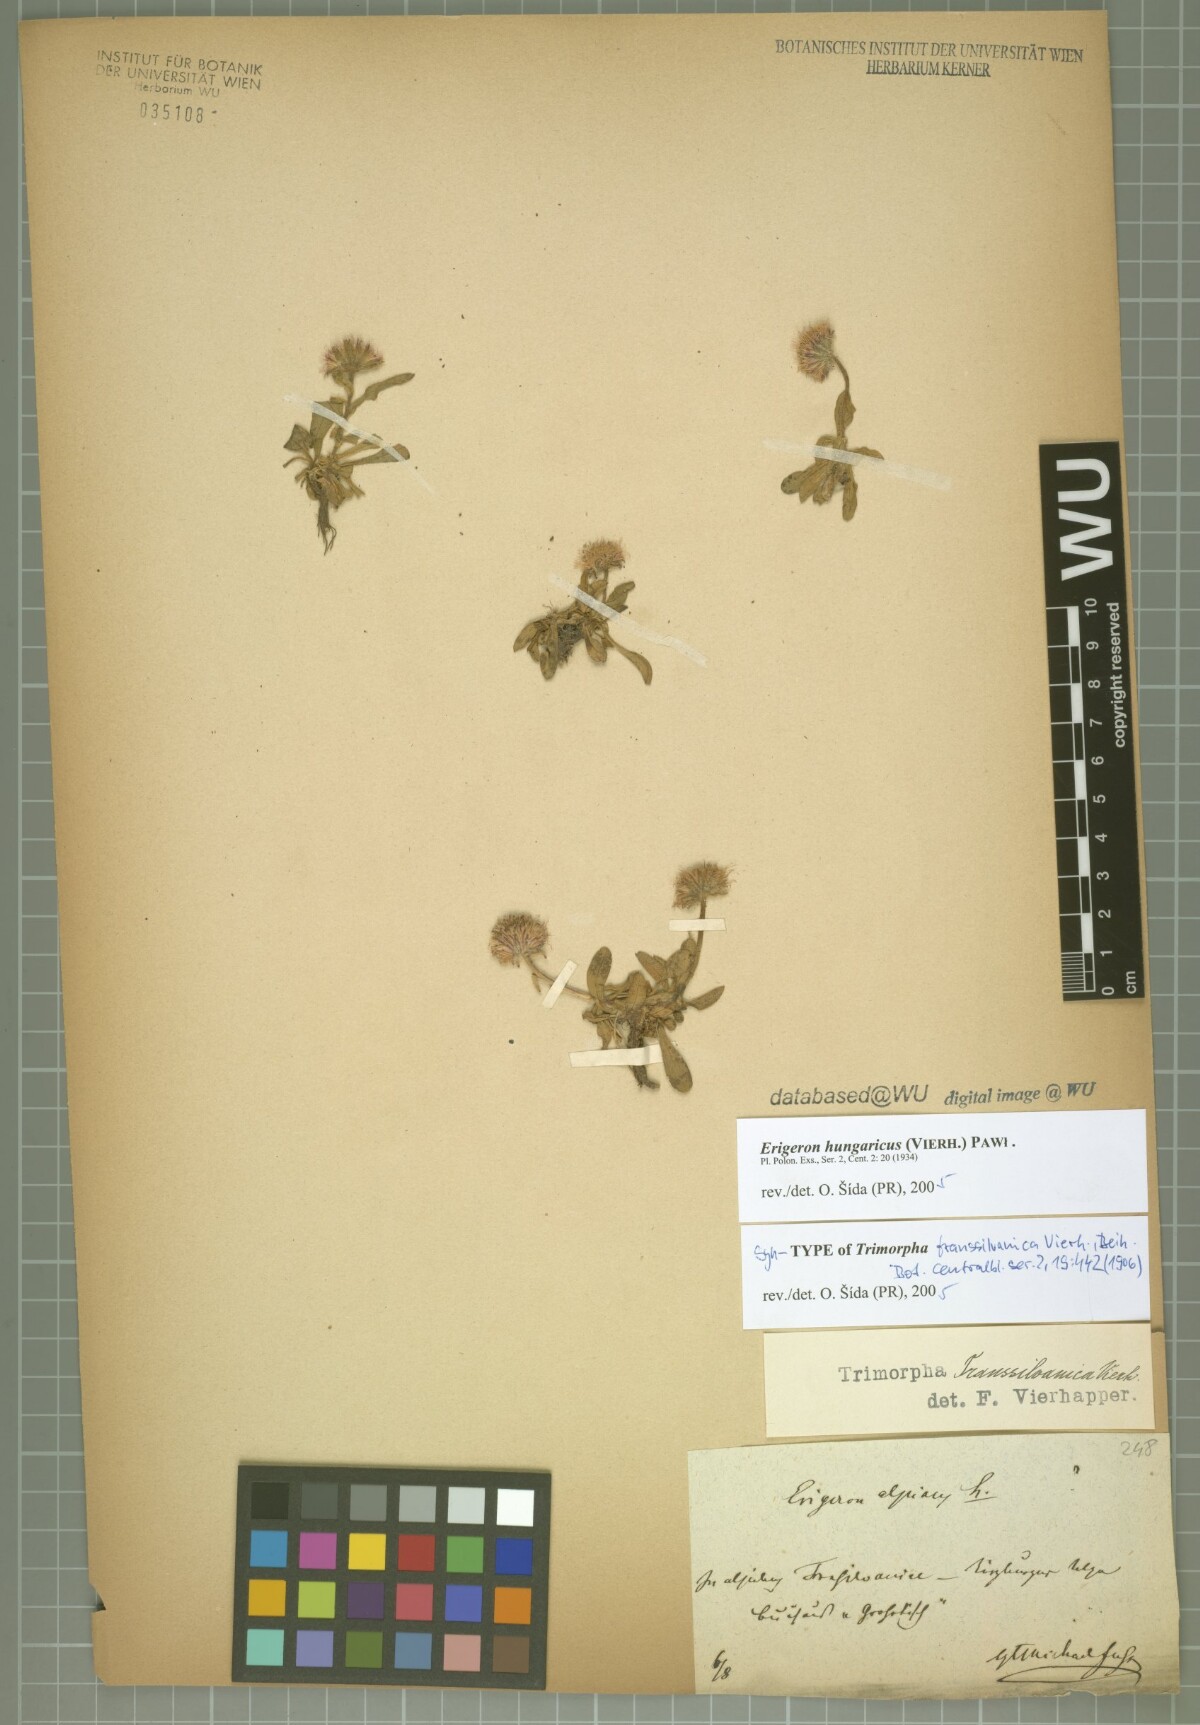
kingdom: Plantae
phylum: Tracheophyta
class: Magnoliopsida
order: Asterales
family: Asteraceae
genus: Erigeron
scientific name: Erigeron Trimorpha transsilvanica
